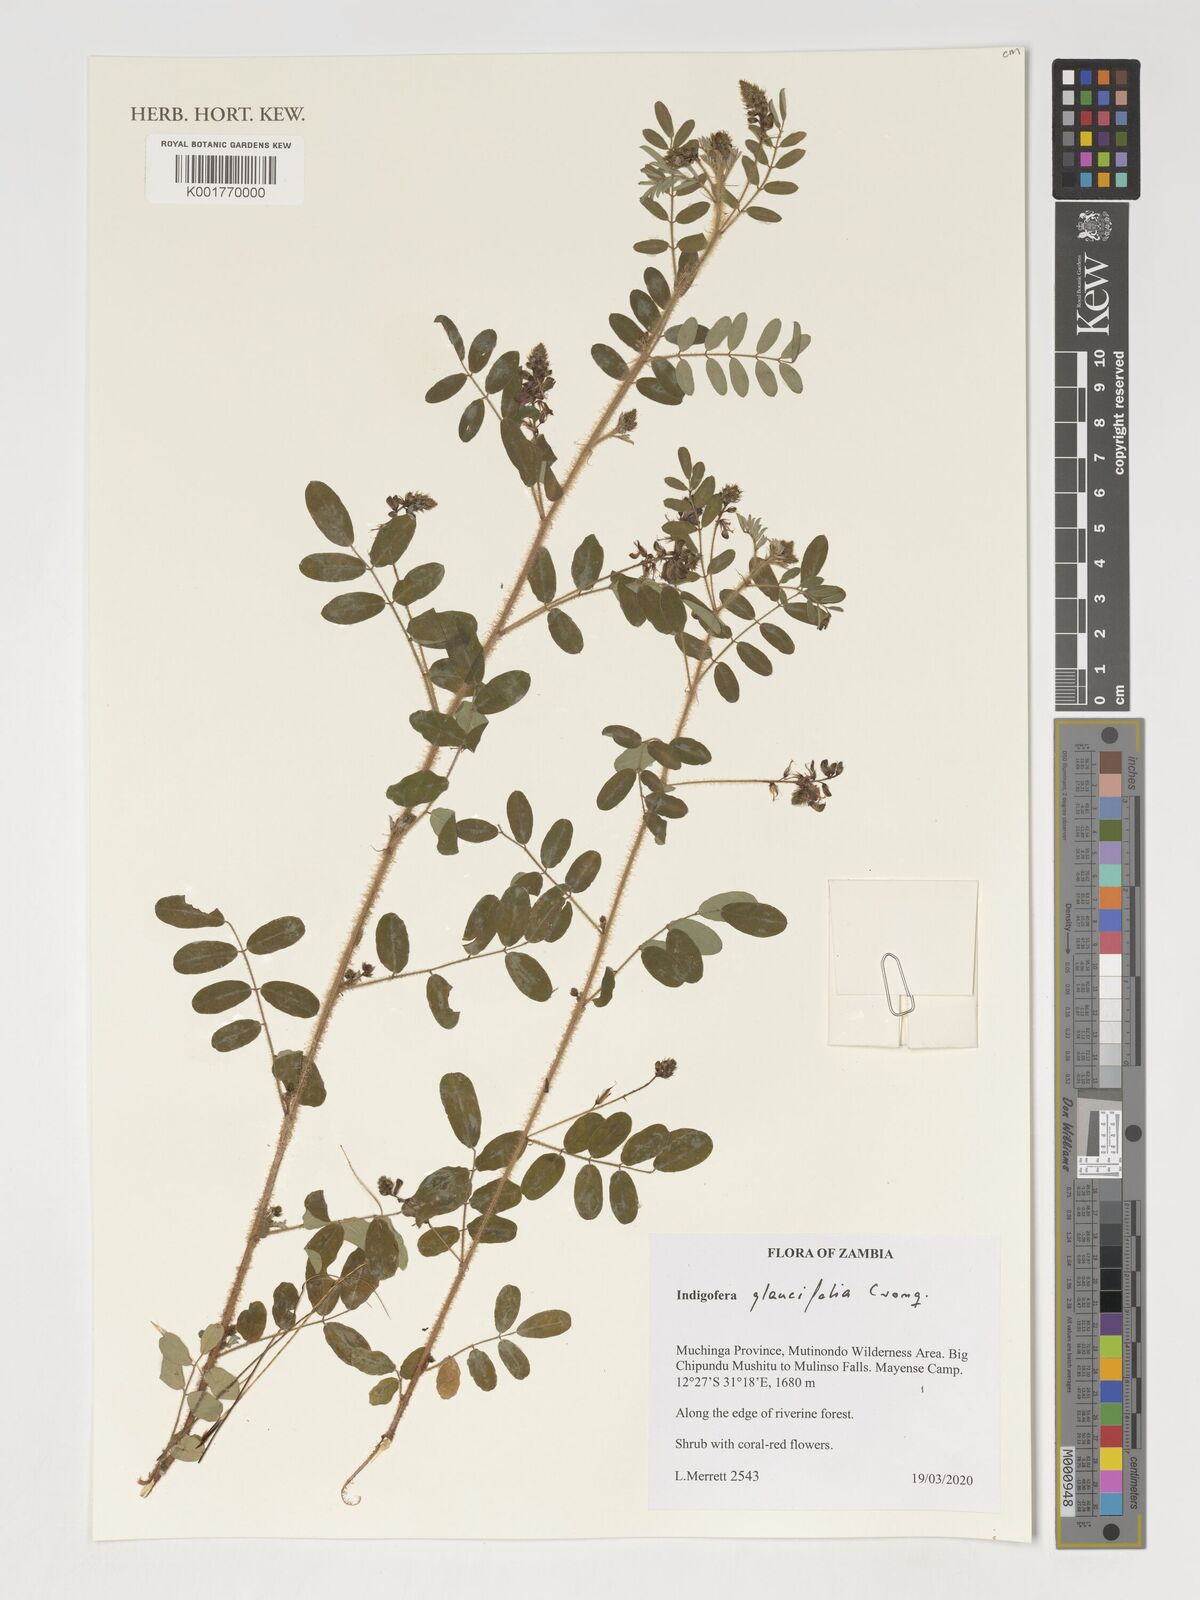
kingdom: Plantae
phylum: Tracheophyta
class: Magnoliopsida
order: Fabales
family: Fabaceae
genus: Indigofera
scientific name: Indigofera glaucifolia
